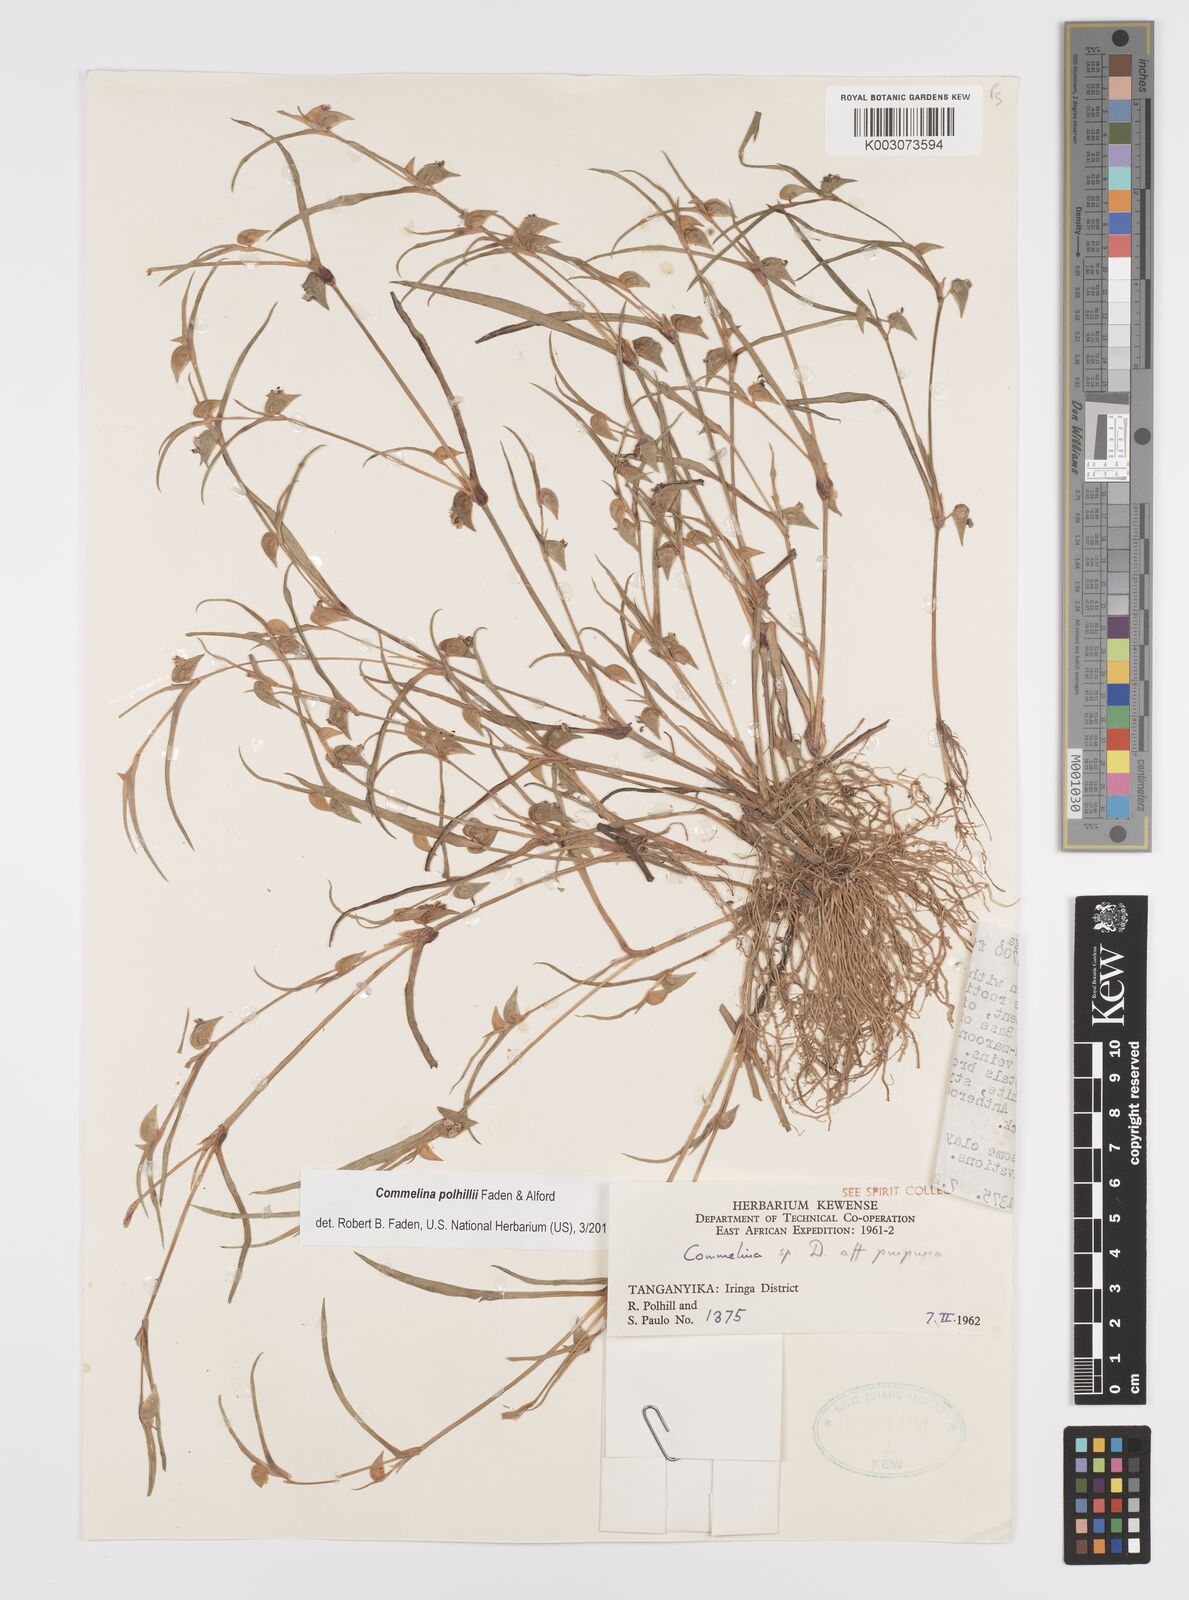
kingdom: Plantae
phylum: Tracheophyta
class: Liliopsida
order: Commelinales
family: Commelinaceae
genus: Commelina
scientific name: Commelina polhillii
